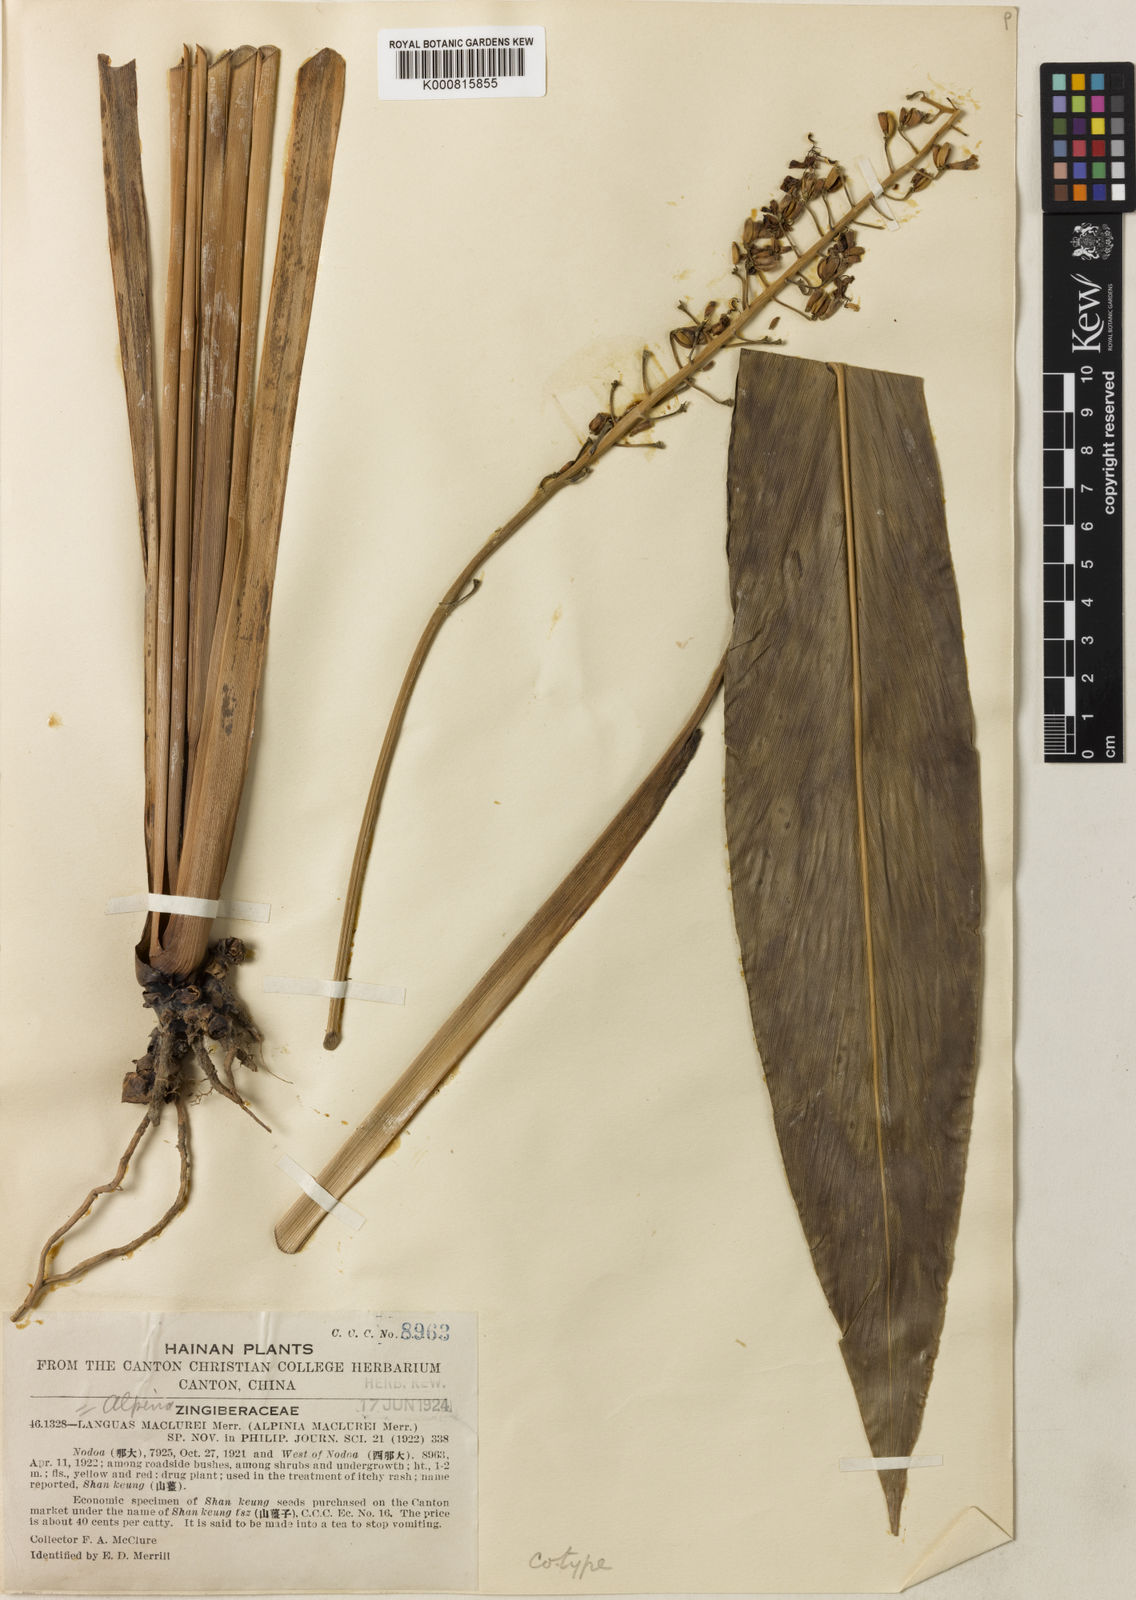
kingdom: Plantae
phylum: Tracheophyta
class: Liliopsida
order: Zingiberales
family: Zingiberaceae
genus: Alpinia
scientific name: Alpinia maclurei
